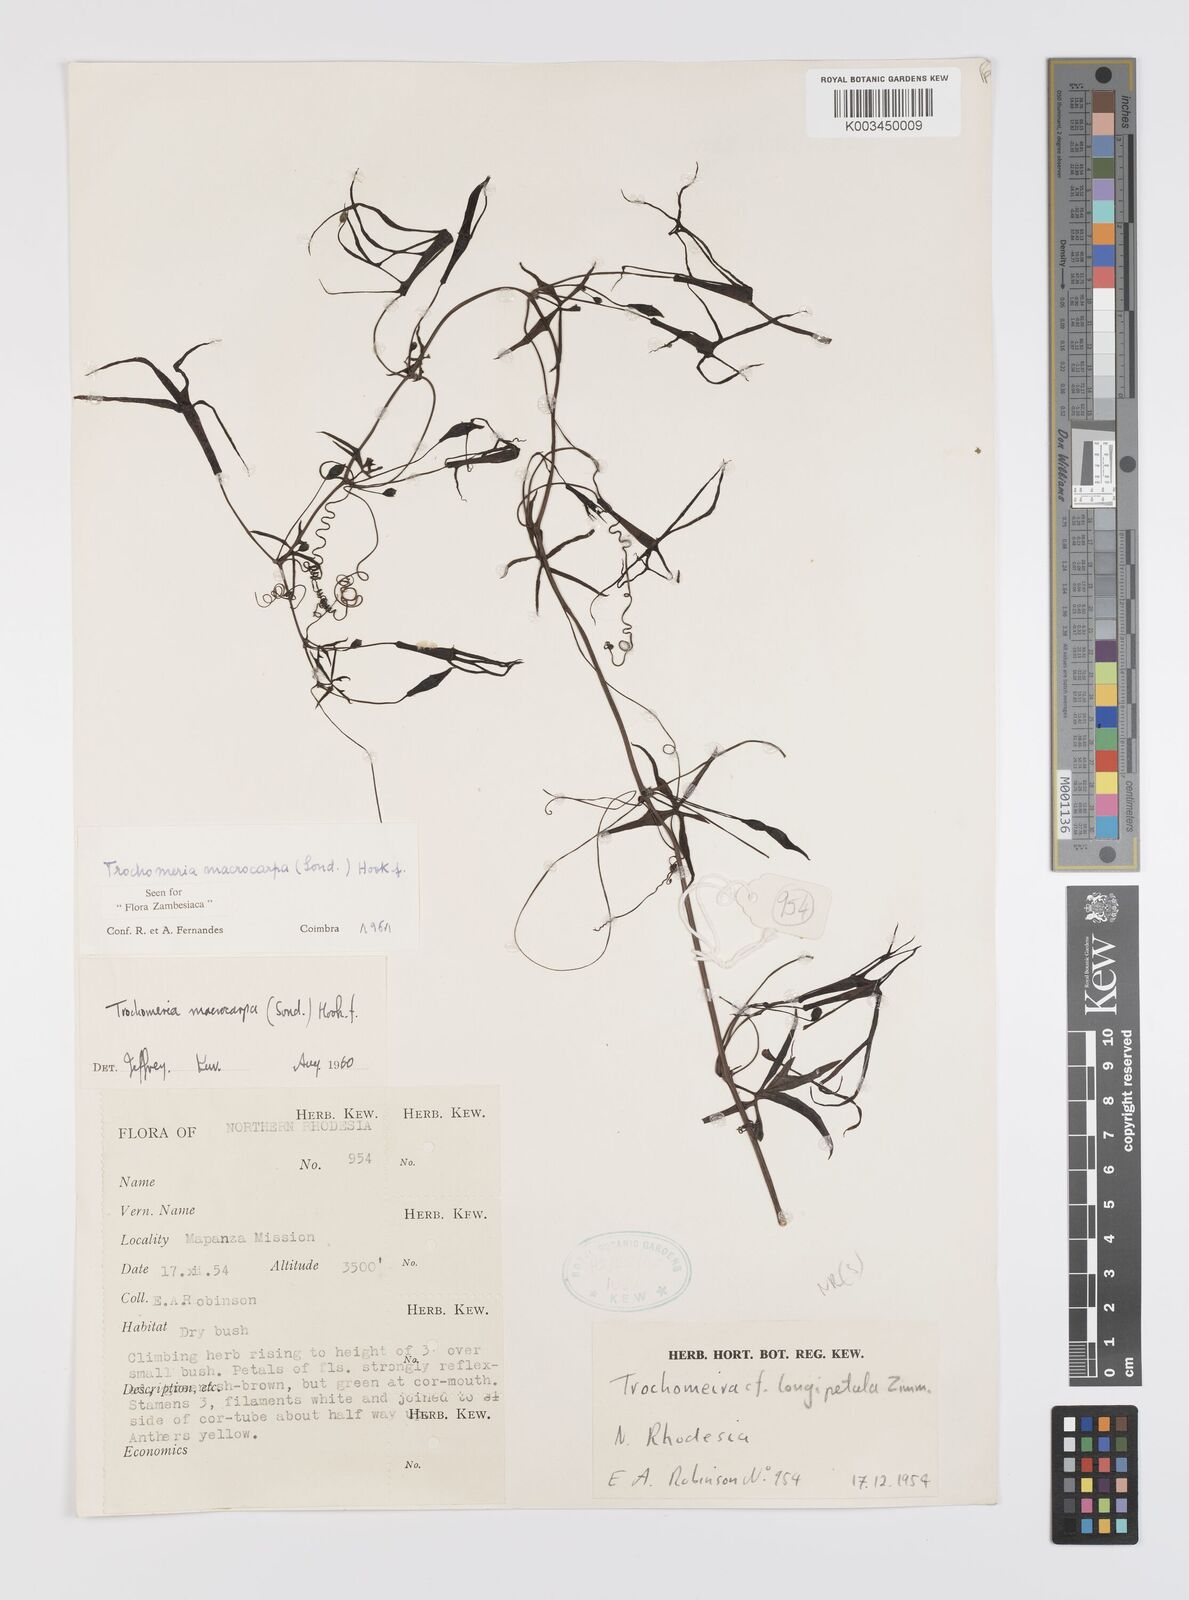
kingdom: Plantae
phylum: Tracheophyta
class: Magnoliopsida
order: Cucurbitales
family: Cucurbitaceae
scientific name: Cucurbitaceae
